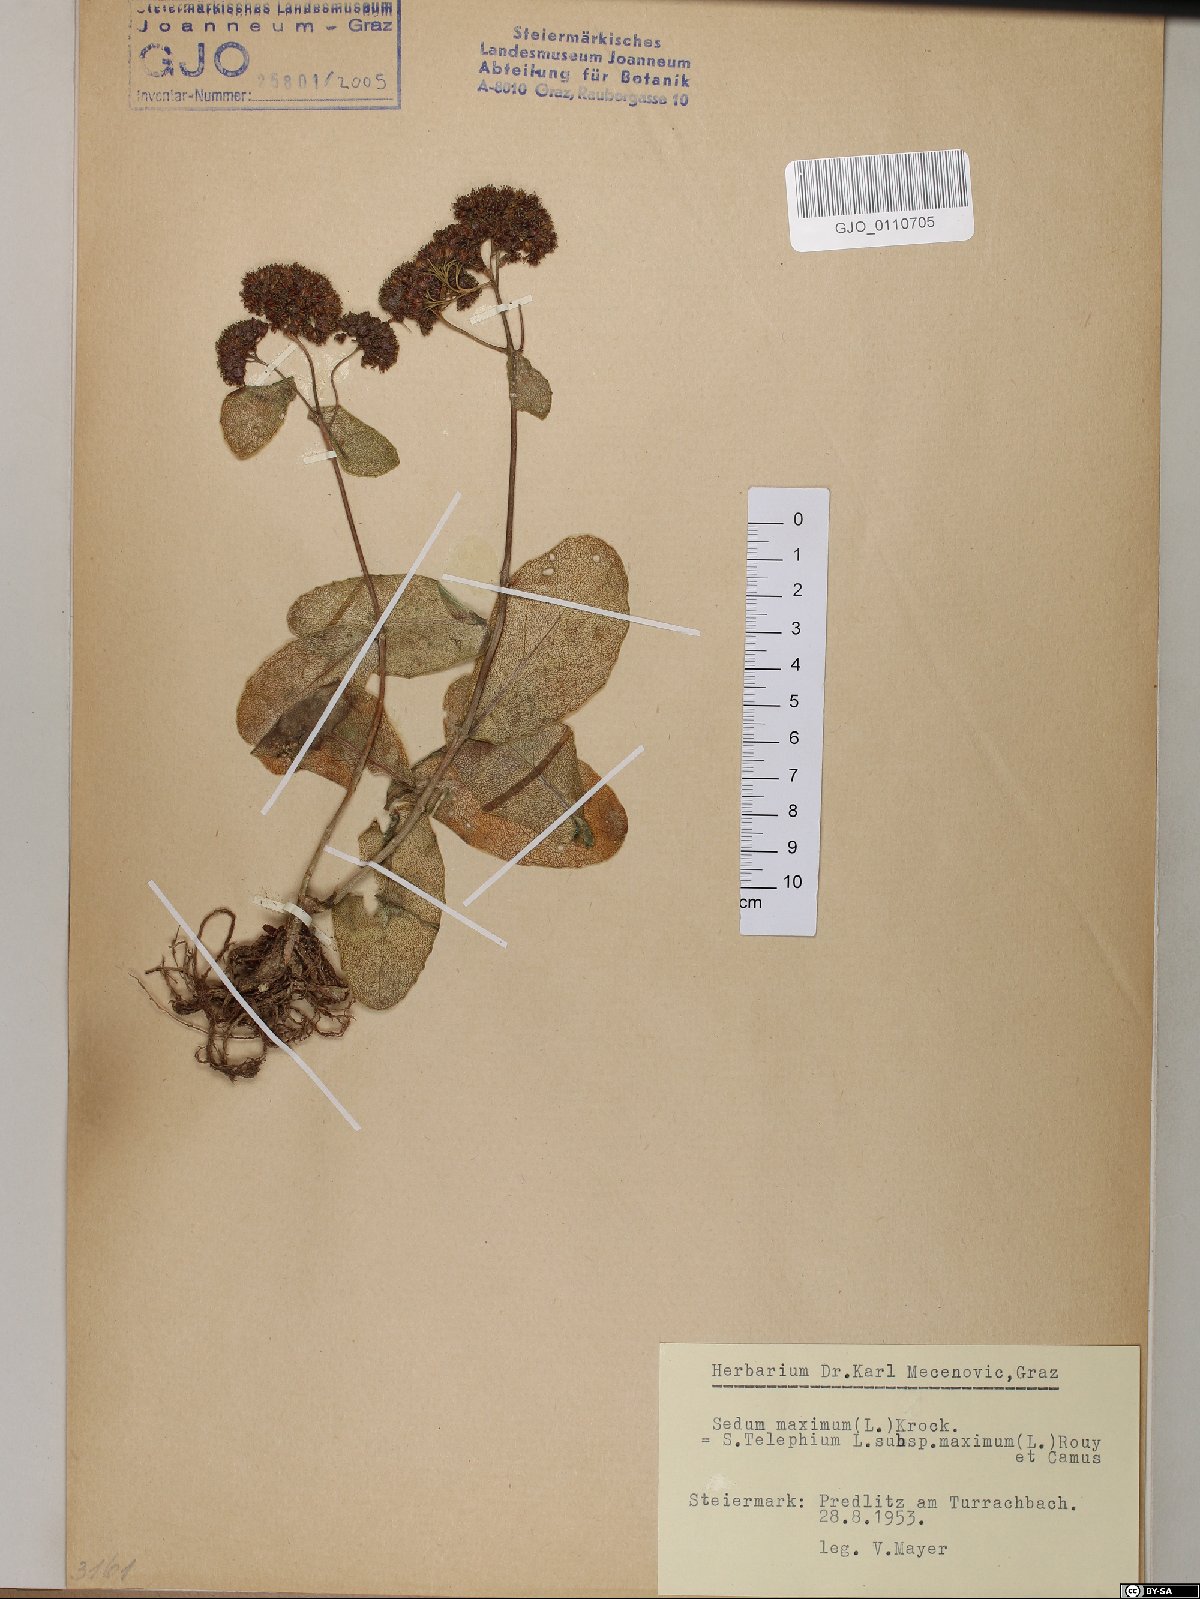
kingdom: Plantae
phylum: Tracheophyta
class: Magnoliopsida
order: Saxifragales
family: Crassulaceae
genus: Hylotelephium
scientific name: Hylotelephium maximum
